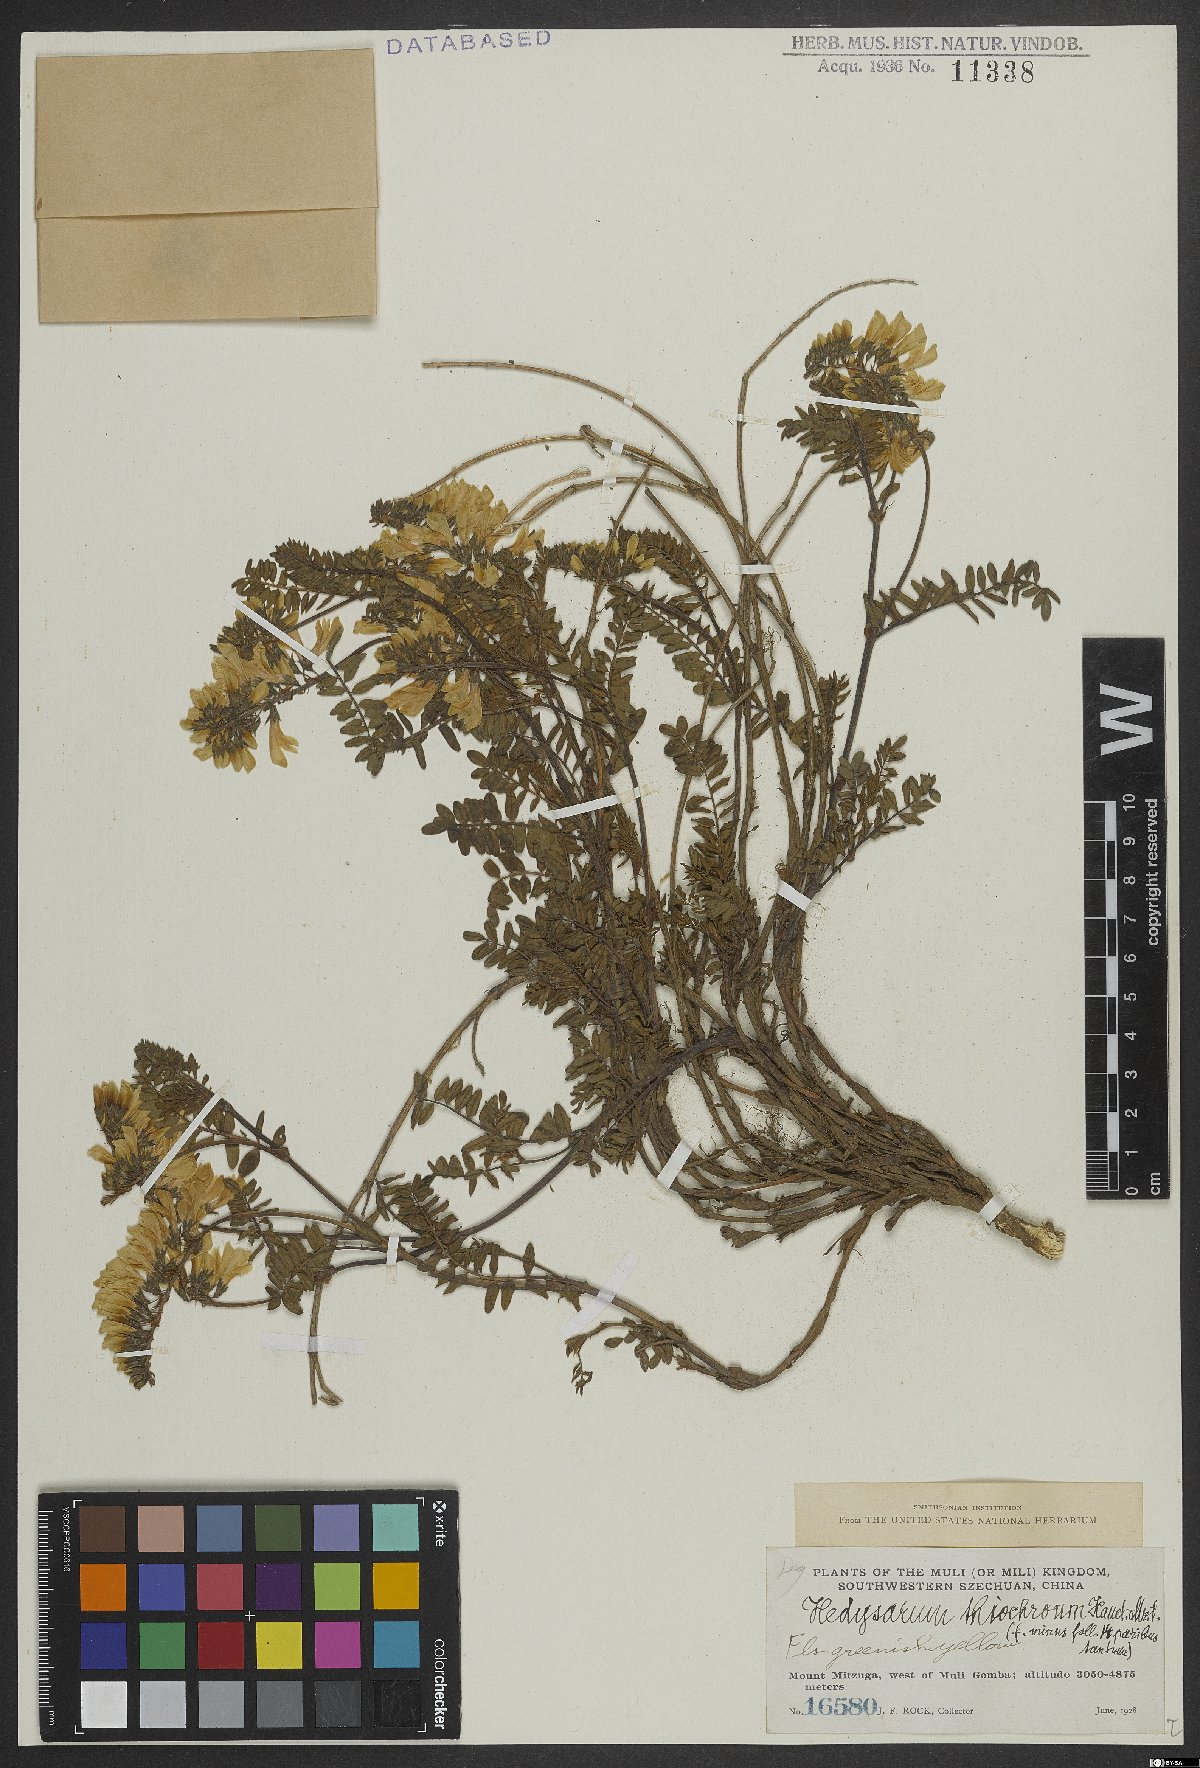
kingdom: Plantae
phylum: Tracheophyta
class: Magnoliopsida
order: Fabales
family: Fabaceae
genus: Hedysarum
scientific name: Hedysarum thiochroum
